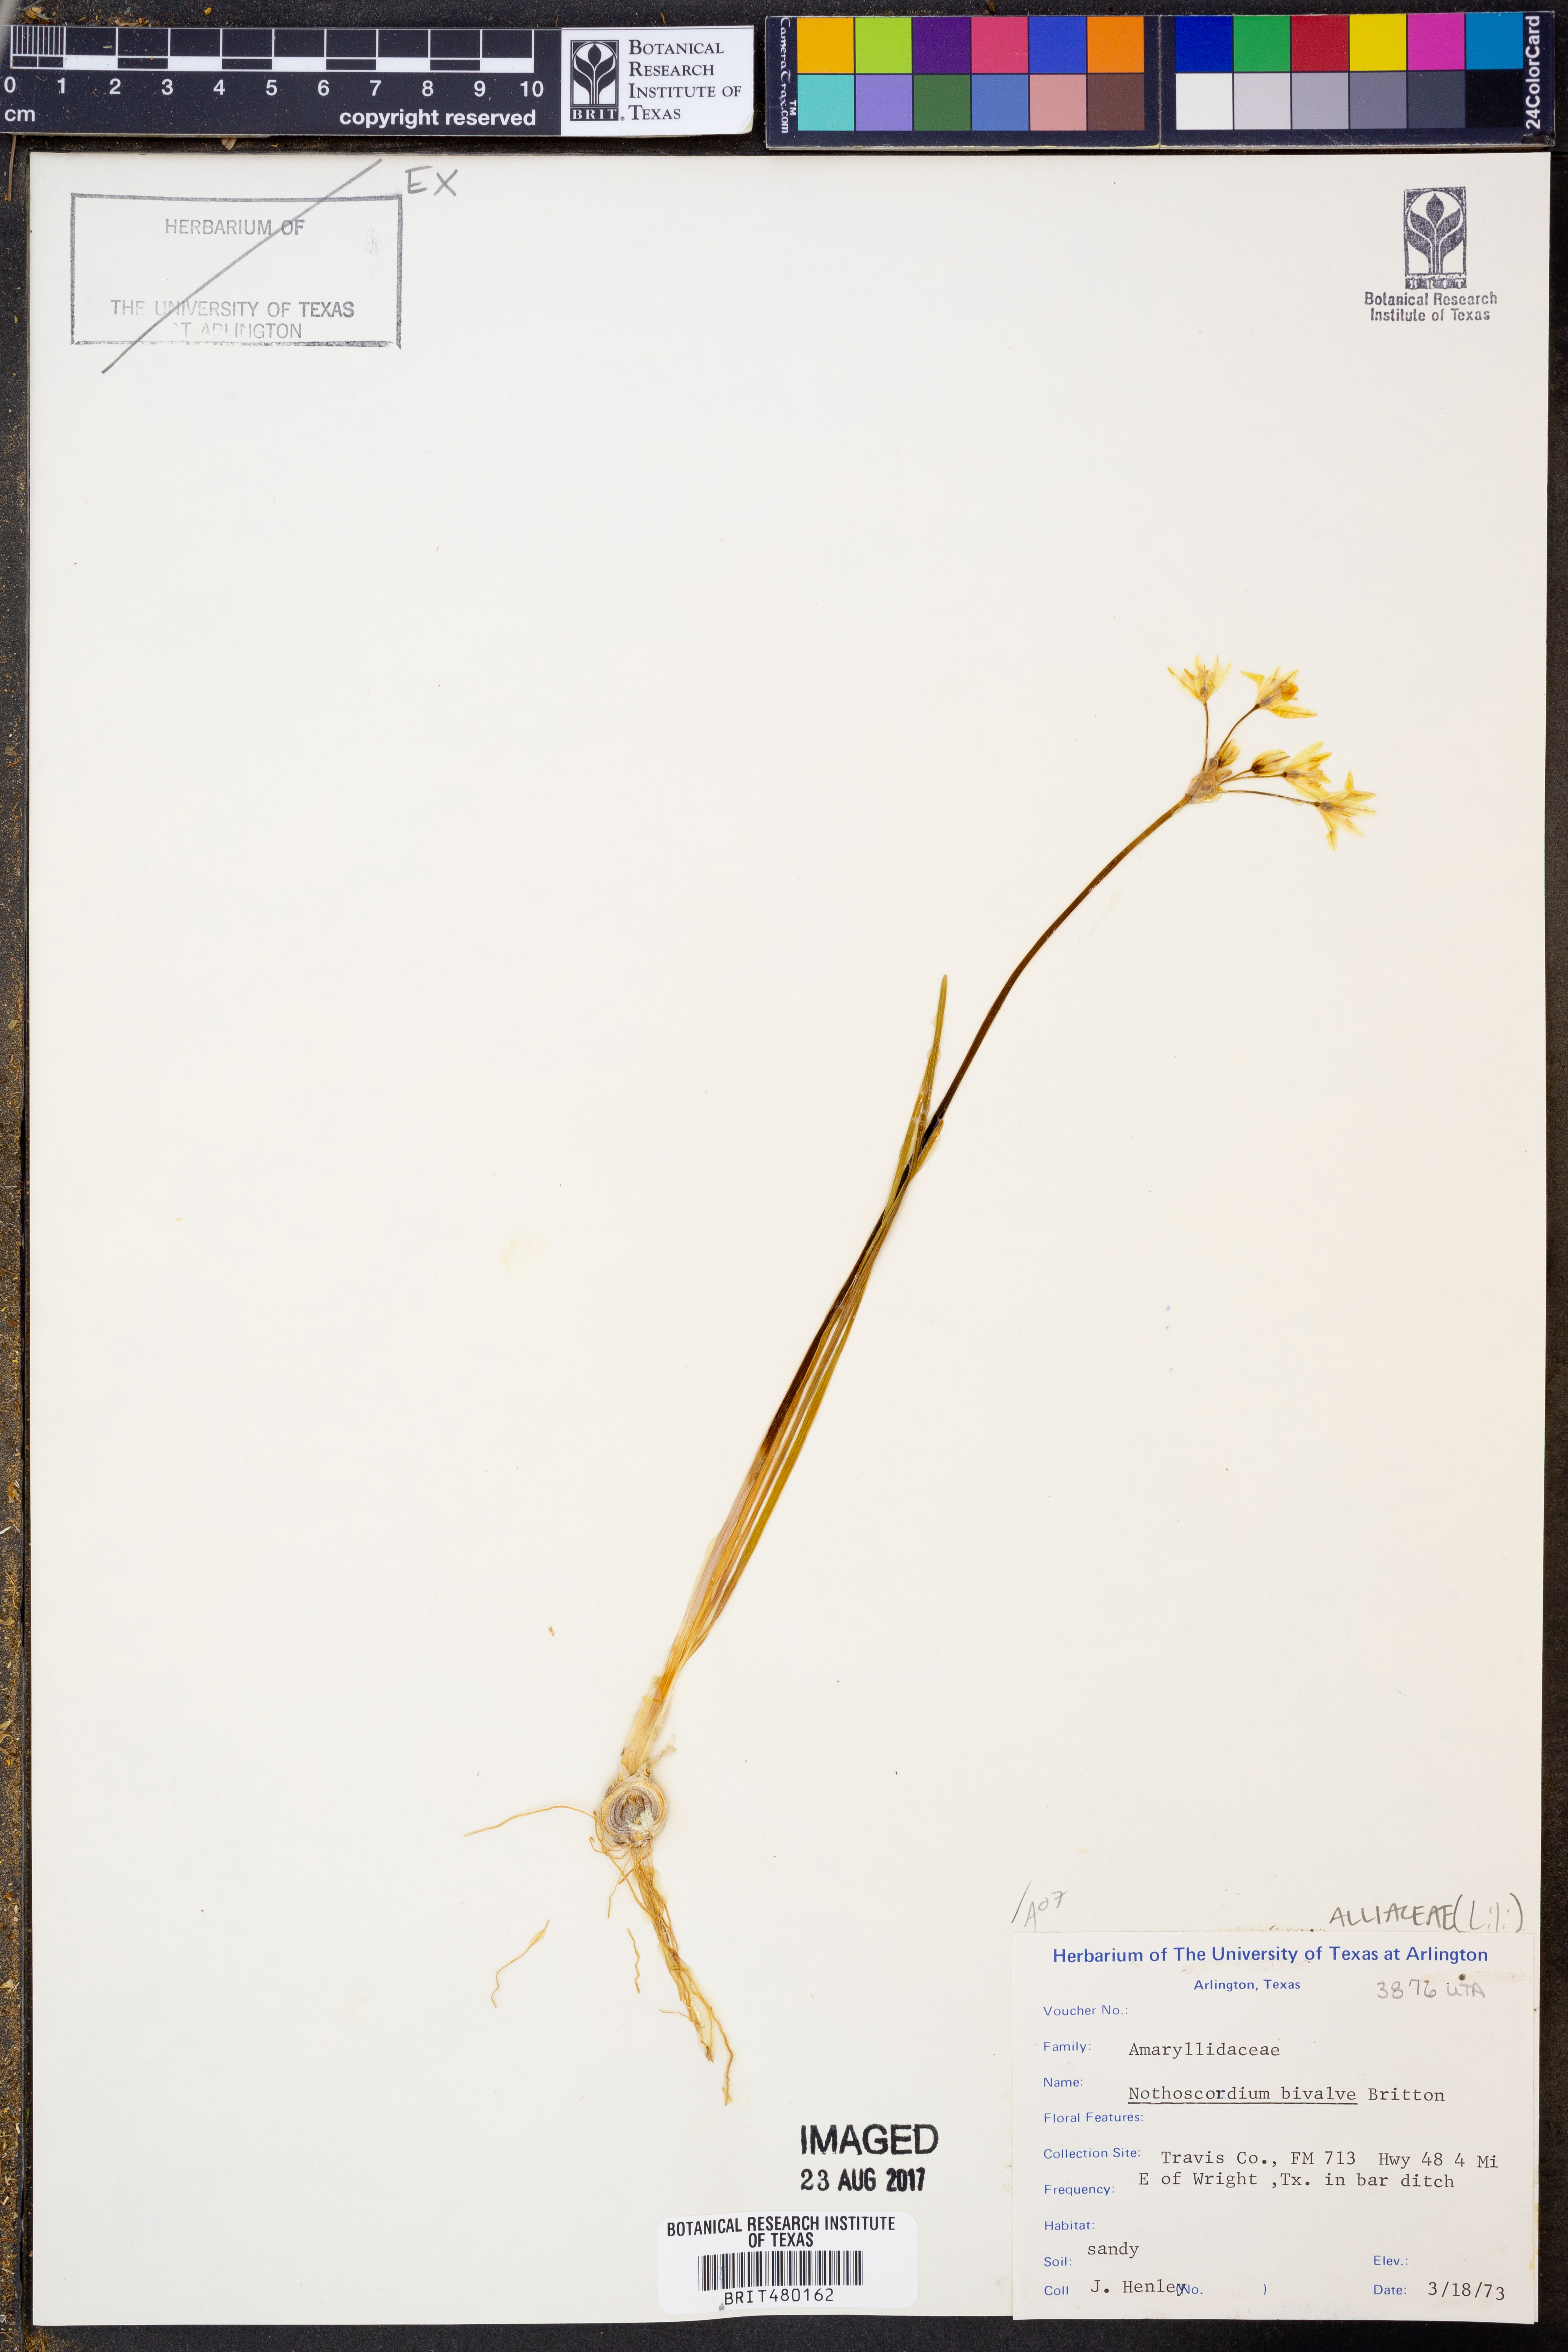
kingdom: Plantae
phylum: Tracheophyta
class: Liliopsida
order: Asparagales
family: Amaryllidaceae
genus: Nothoscordum
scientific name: Nothoscordum bivalve
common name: Crow-poison
